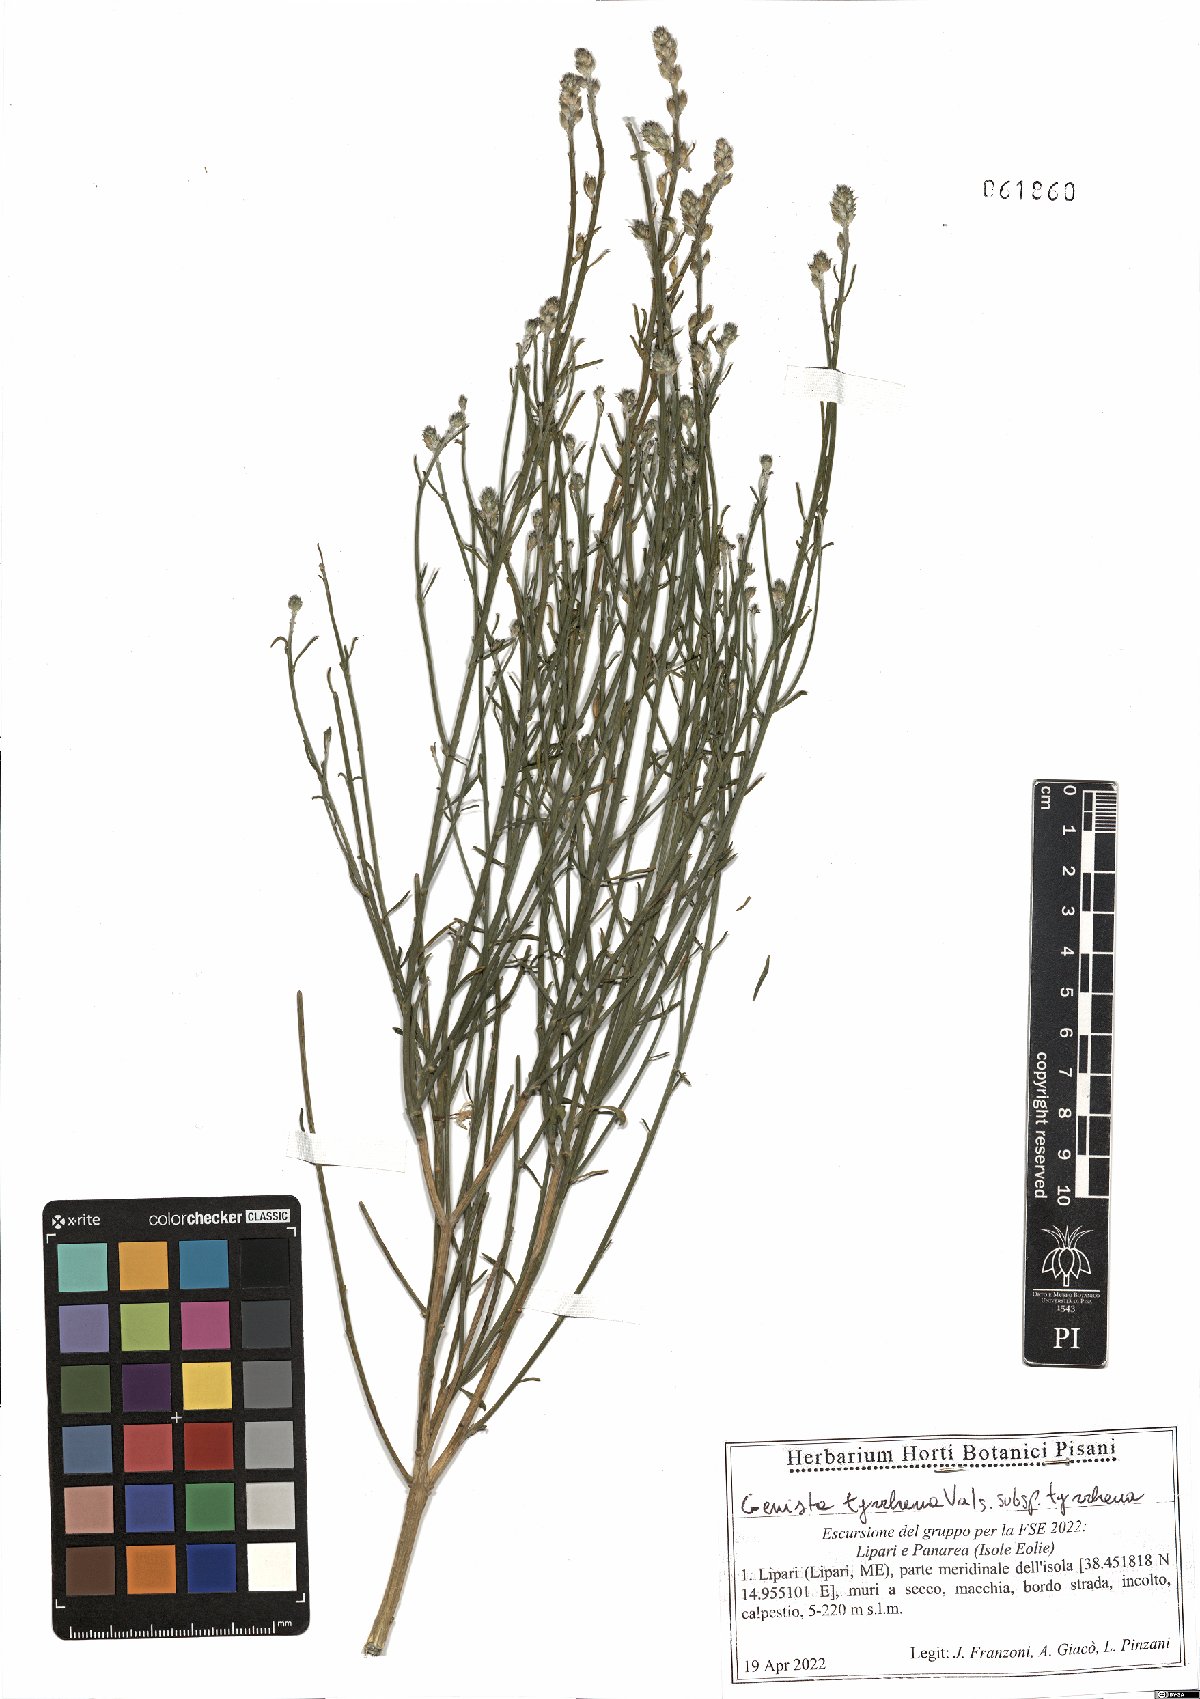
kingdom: Plantae
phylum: Tracheophyta
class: Magnoliopsida
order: Fabales
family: Fabaceae
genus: Genista
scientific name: Genista tyrrhena
